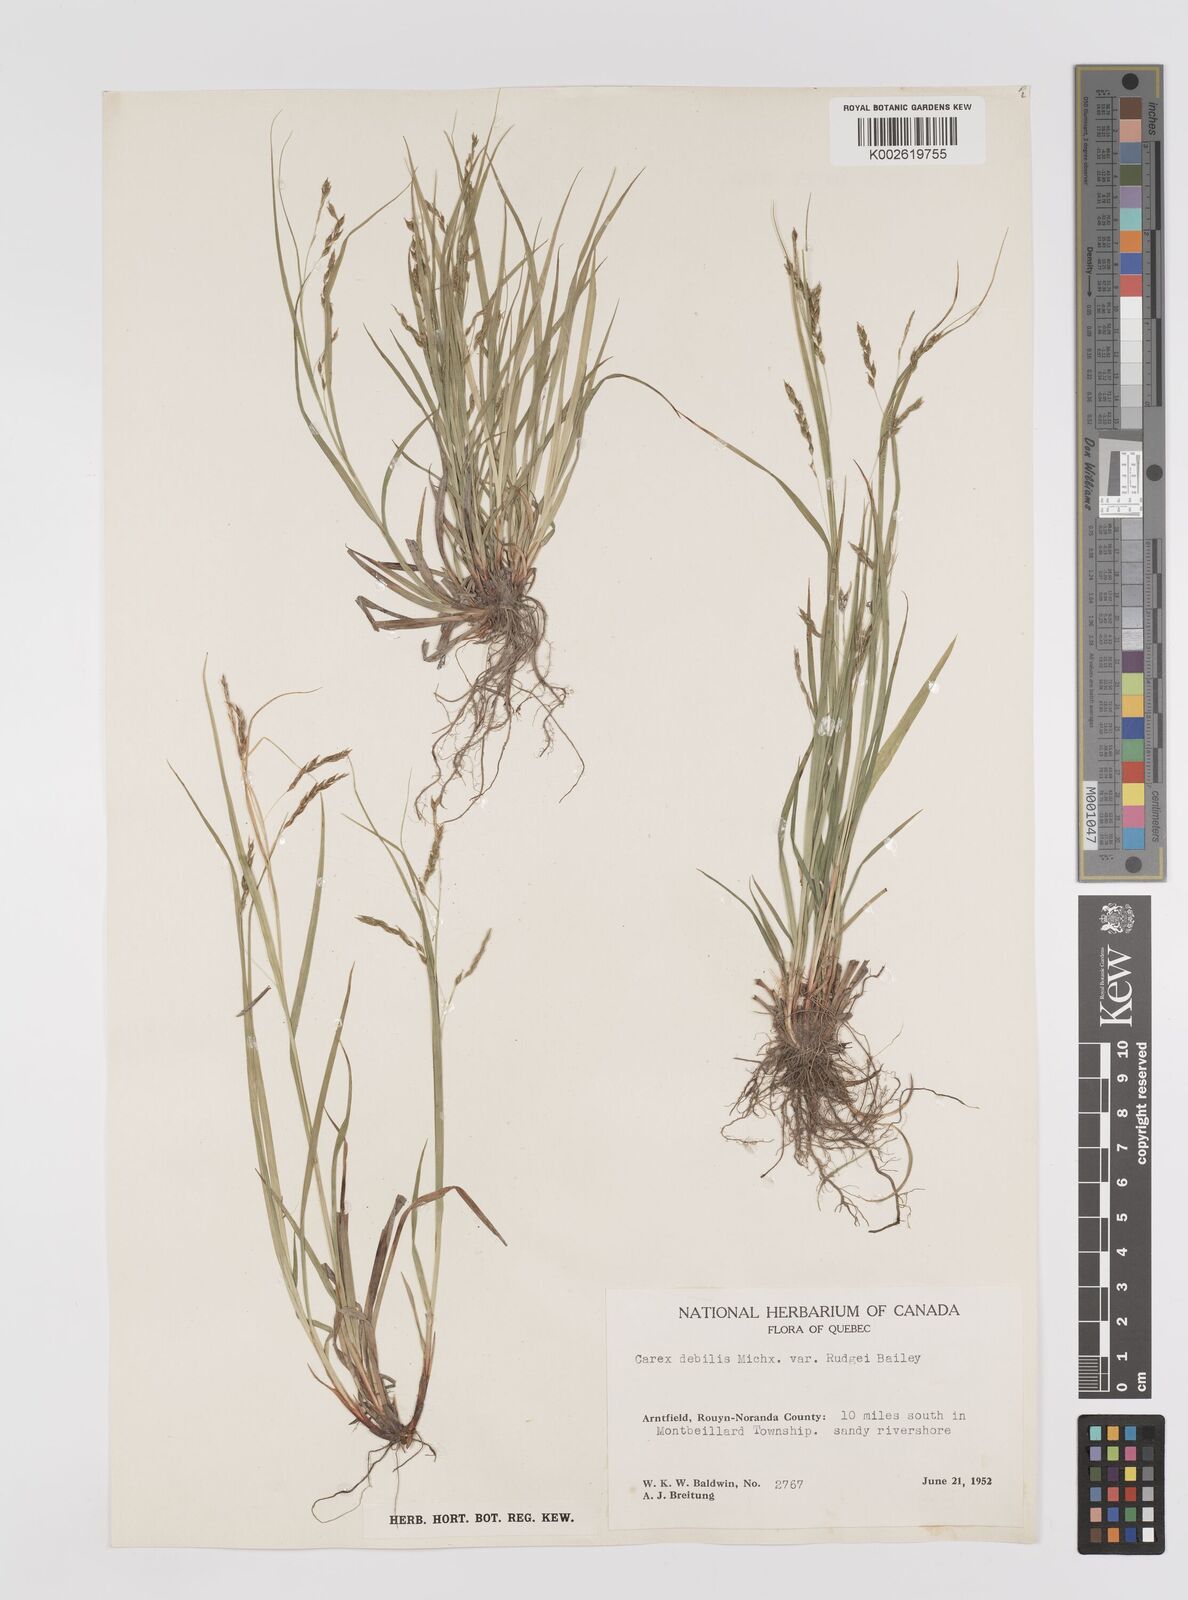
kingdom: Plantae
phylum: Tracheophyta
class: Liliopsida
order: Poales
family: Cyperaceae
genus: Carex
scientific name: Carex debilis
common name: White-edge sedge
